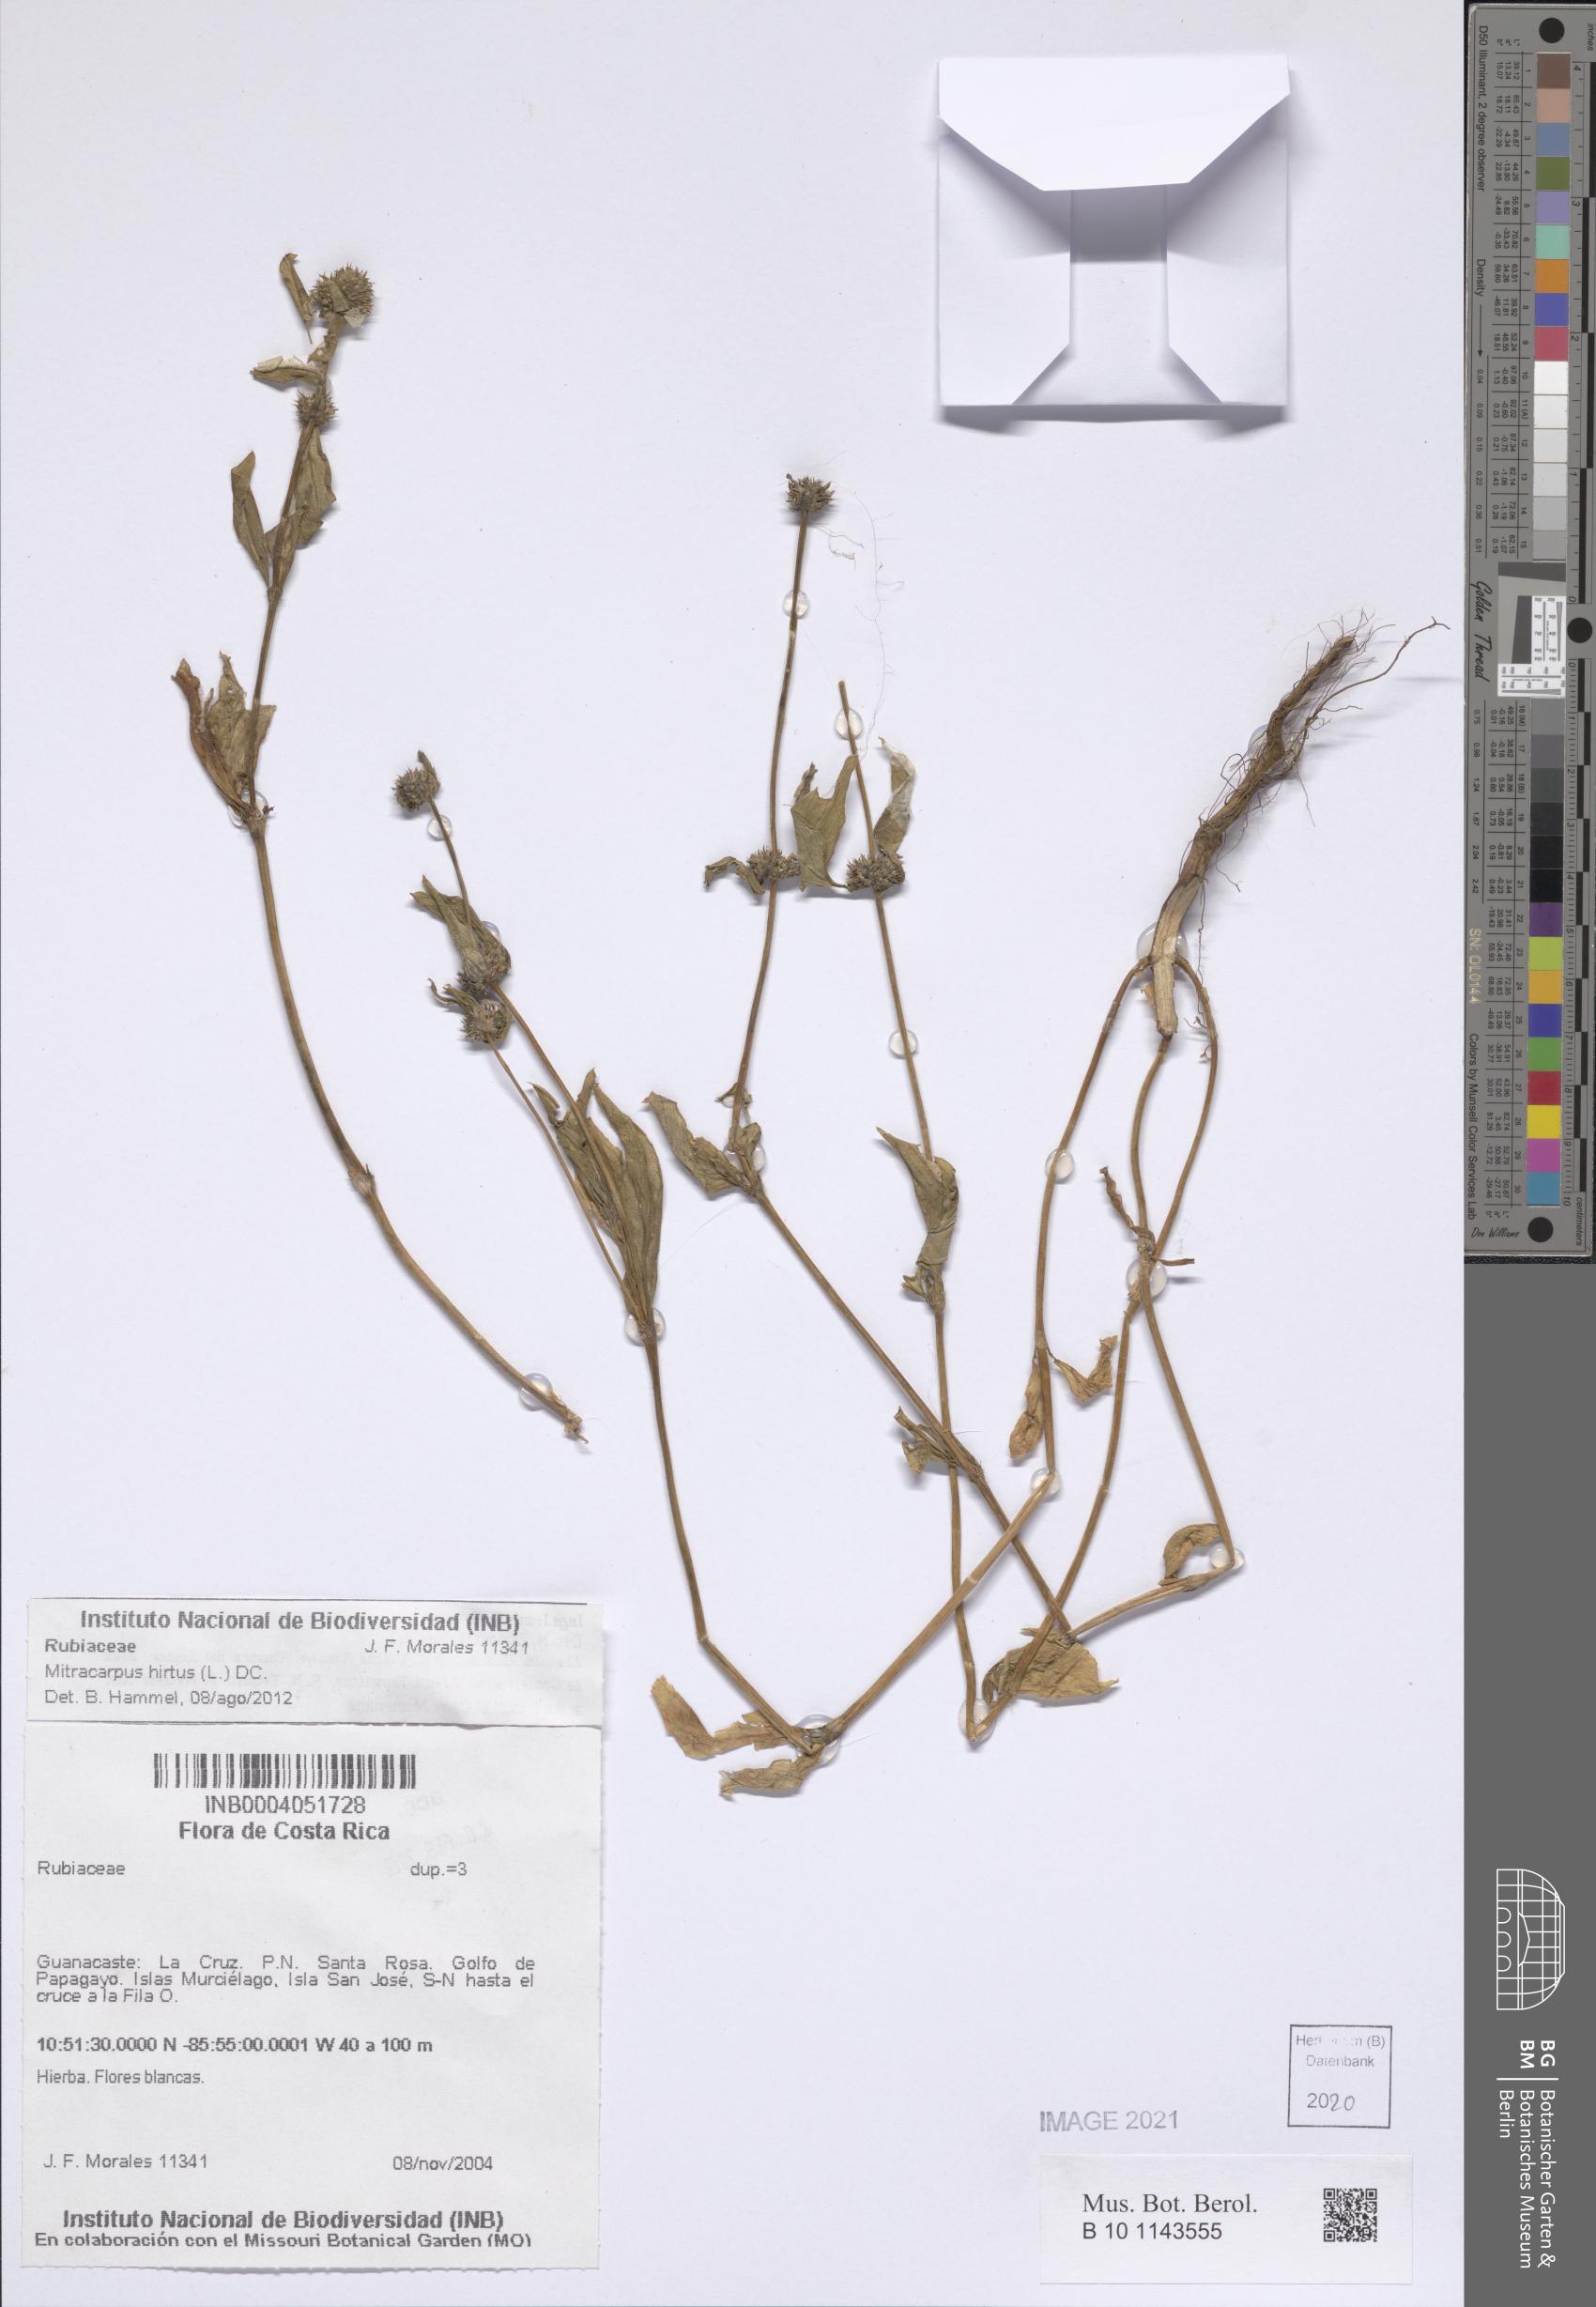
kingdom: Plantae
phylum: Tracheophyta
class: Magnoliopsida
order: Gentianales
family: Rubiaceae
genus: Mitracarpus
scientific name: Mitracarpus hirtus
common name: Tropical girdlepod
